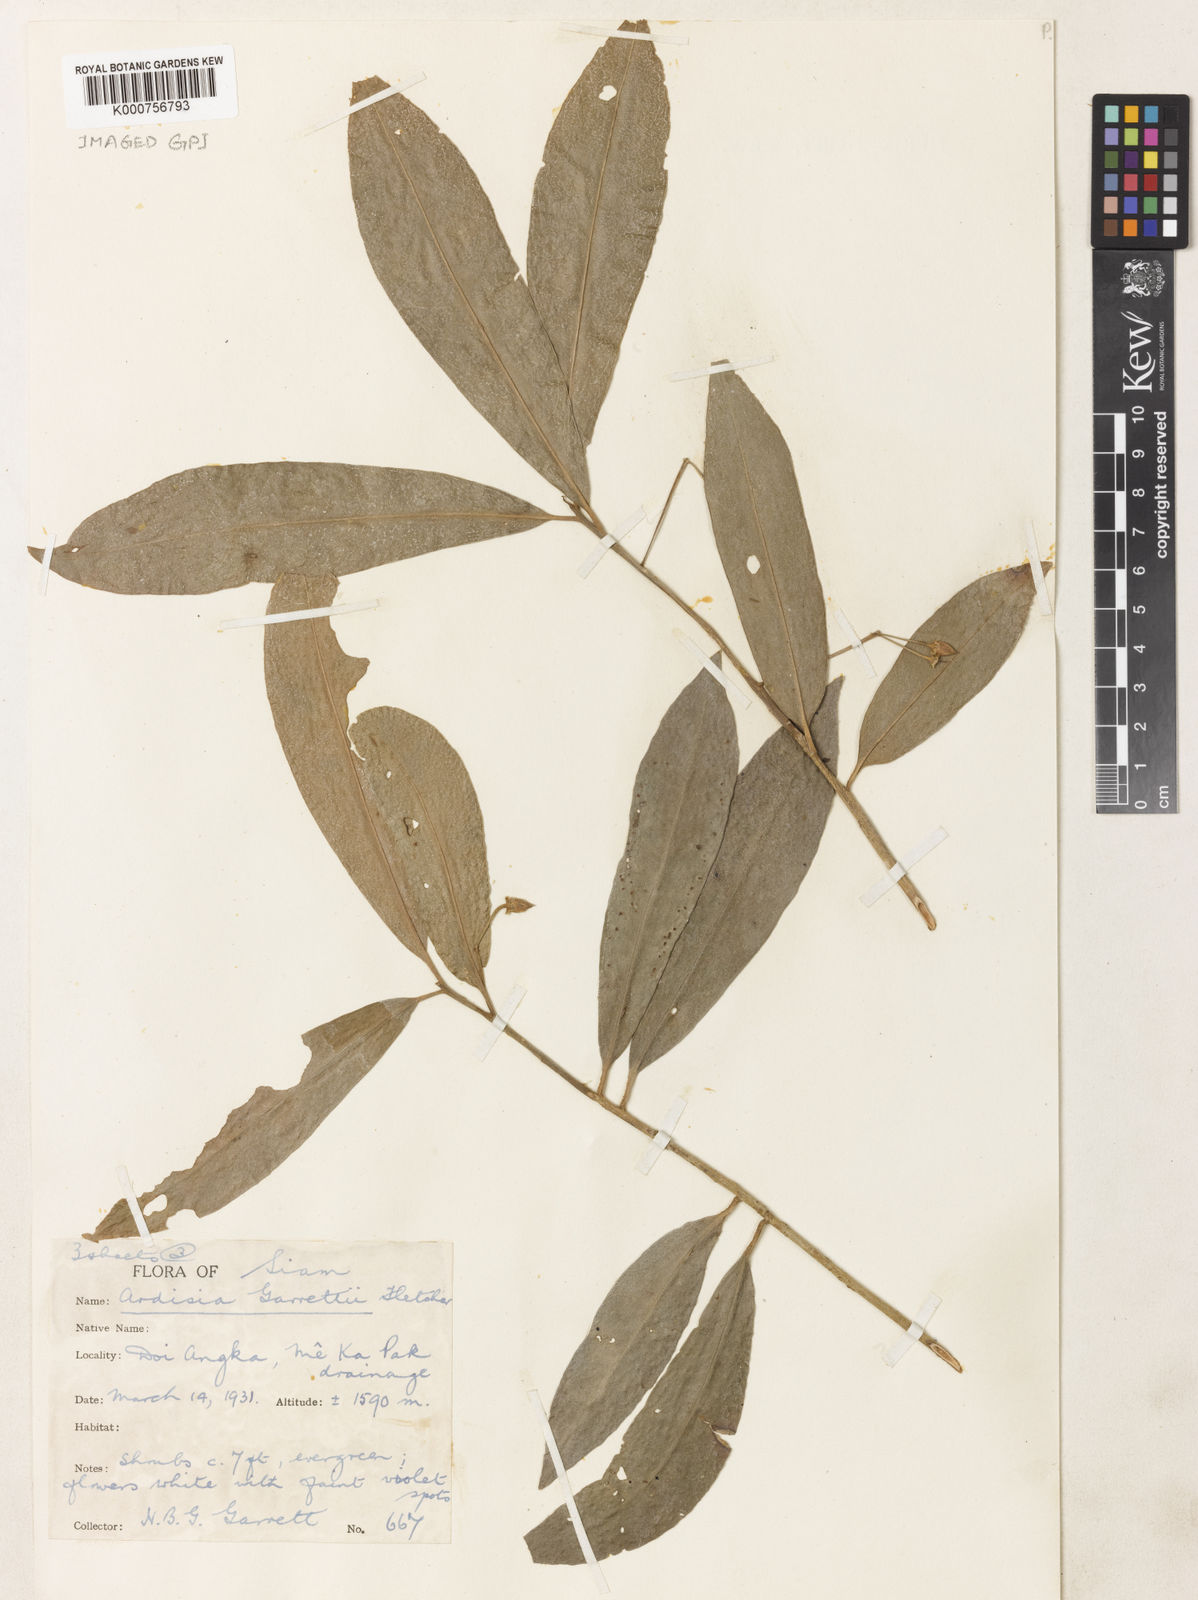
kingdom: Plantae
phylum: Tracheophyta
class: Magnoliopsida
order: Ericales
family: Primulaceae
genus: Ardisia
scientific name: Ardisia attenuata
